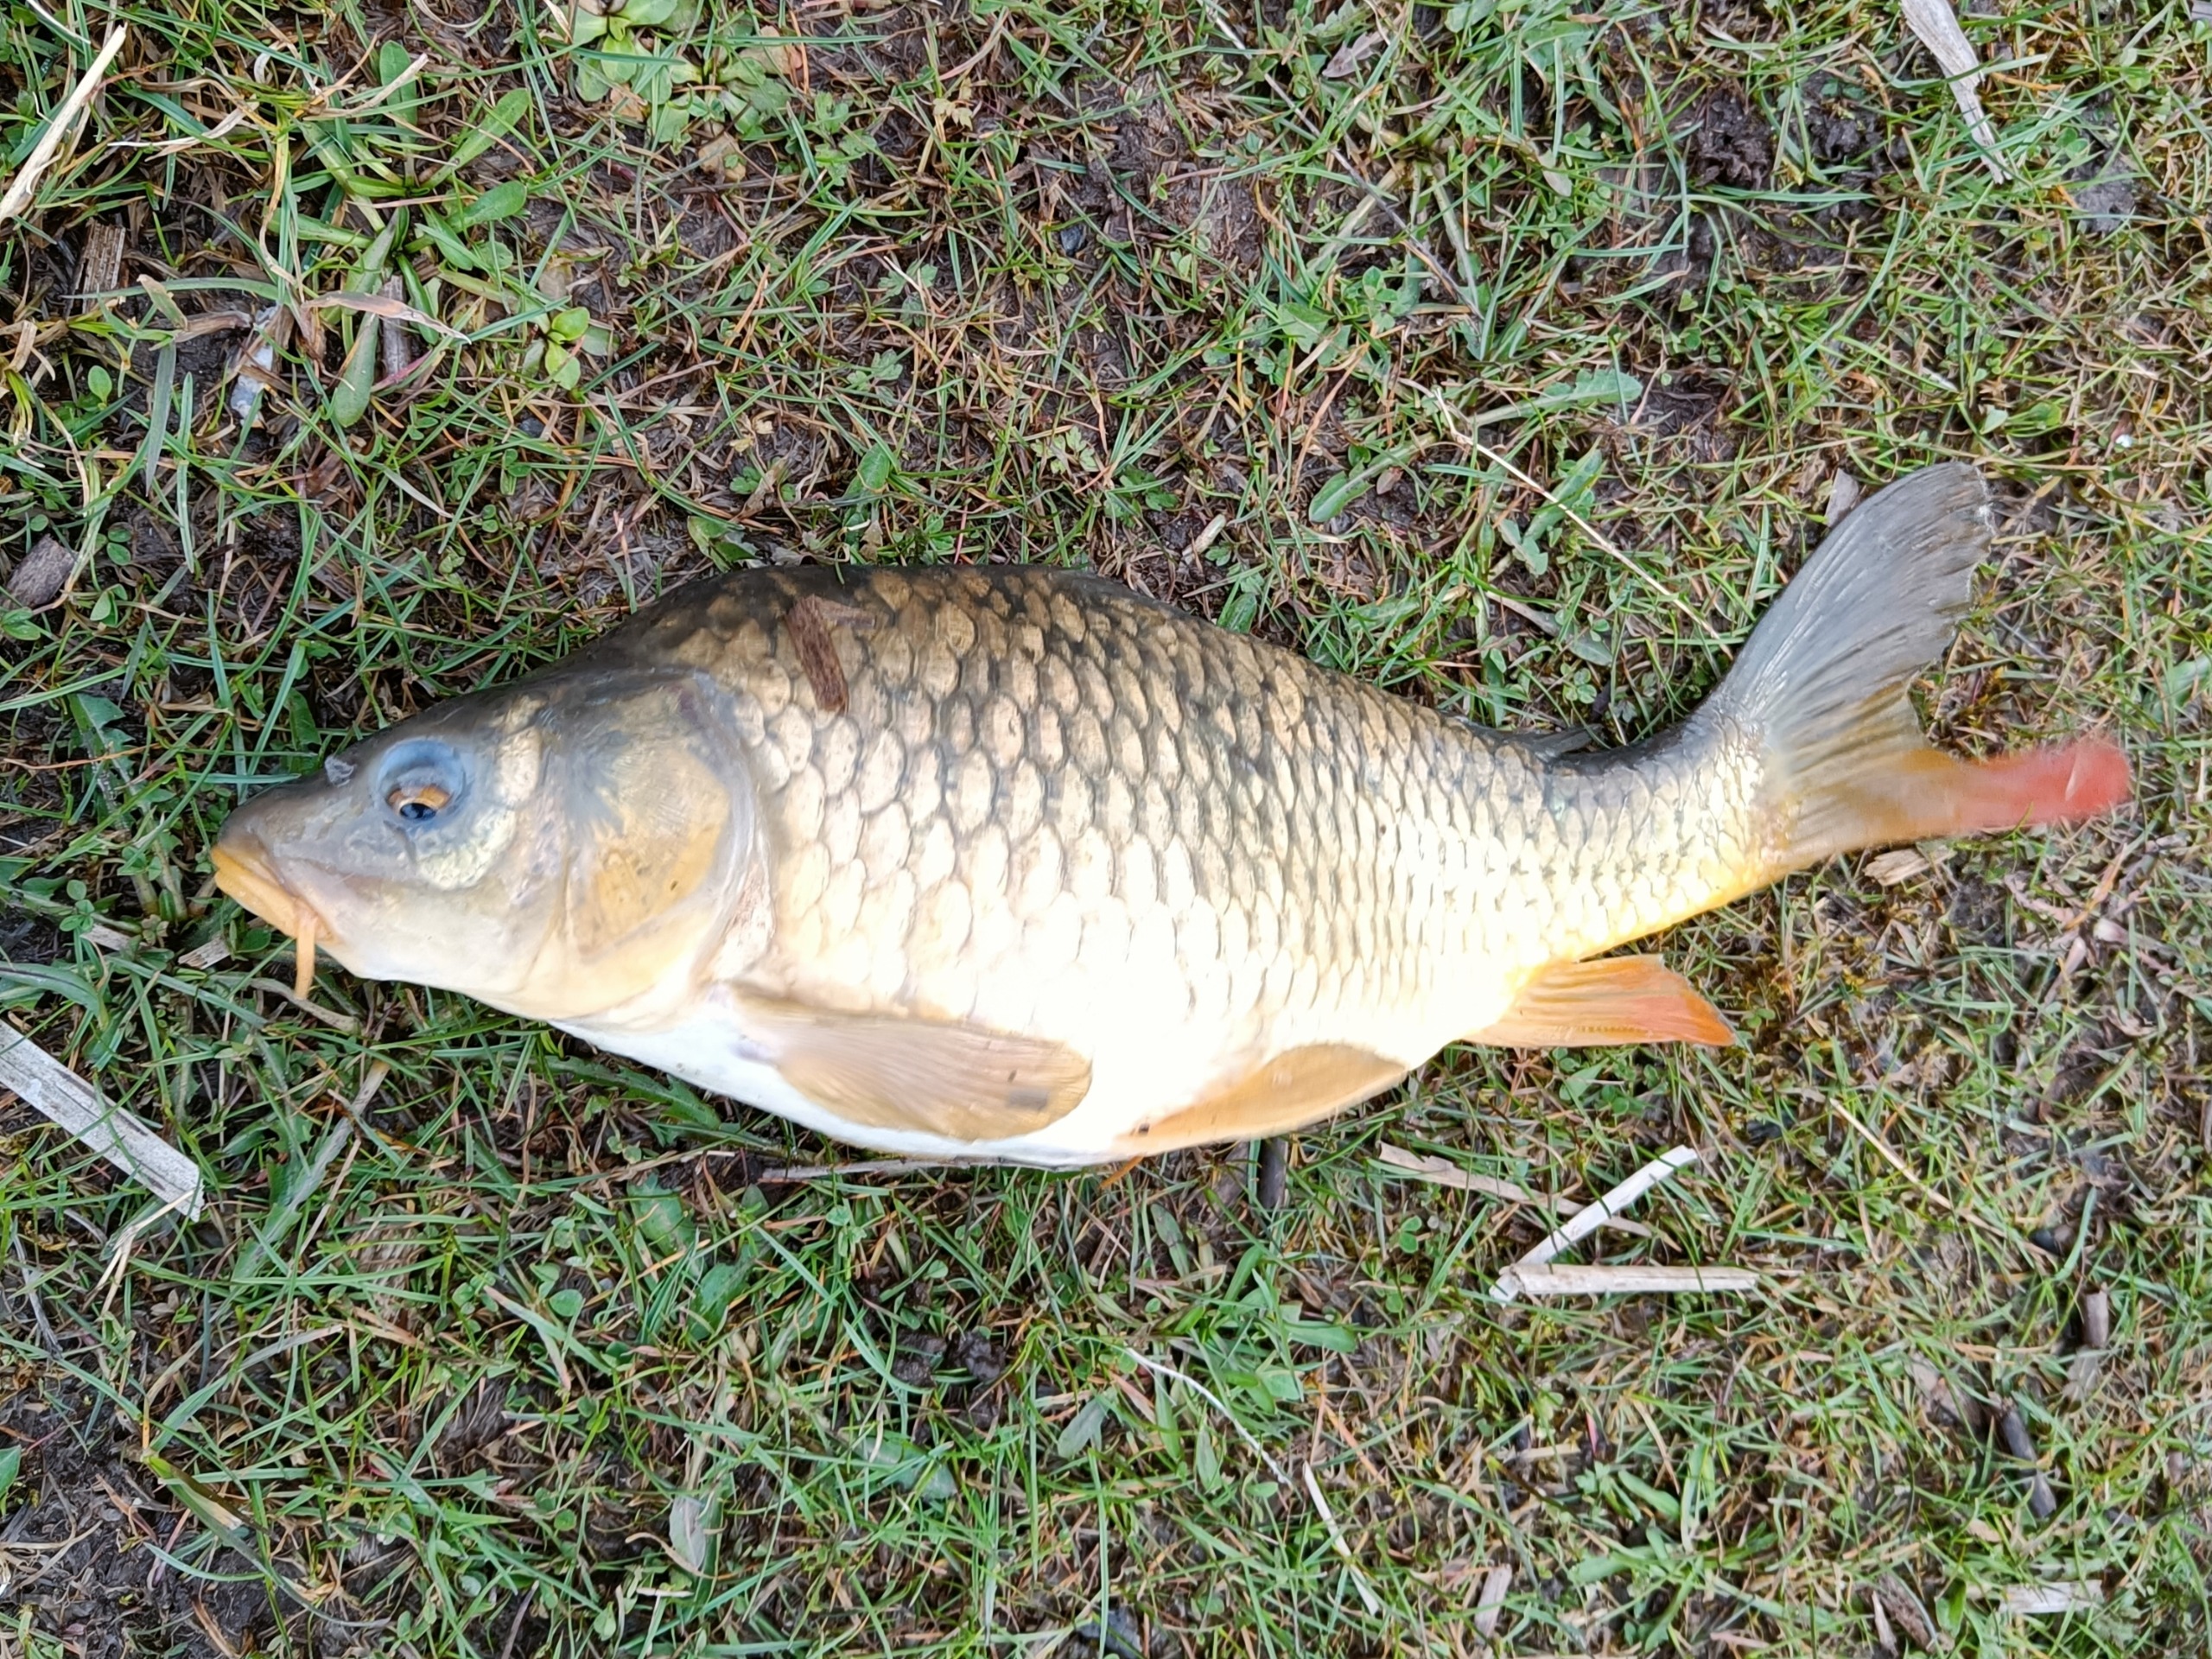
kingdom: Animalia
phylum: Chordata
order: Cypriniformes
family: Cyprinidae
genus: Cyprinus
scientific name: Cyprinus carpio
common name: Karpe
